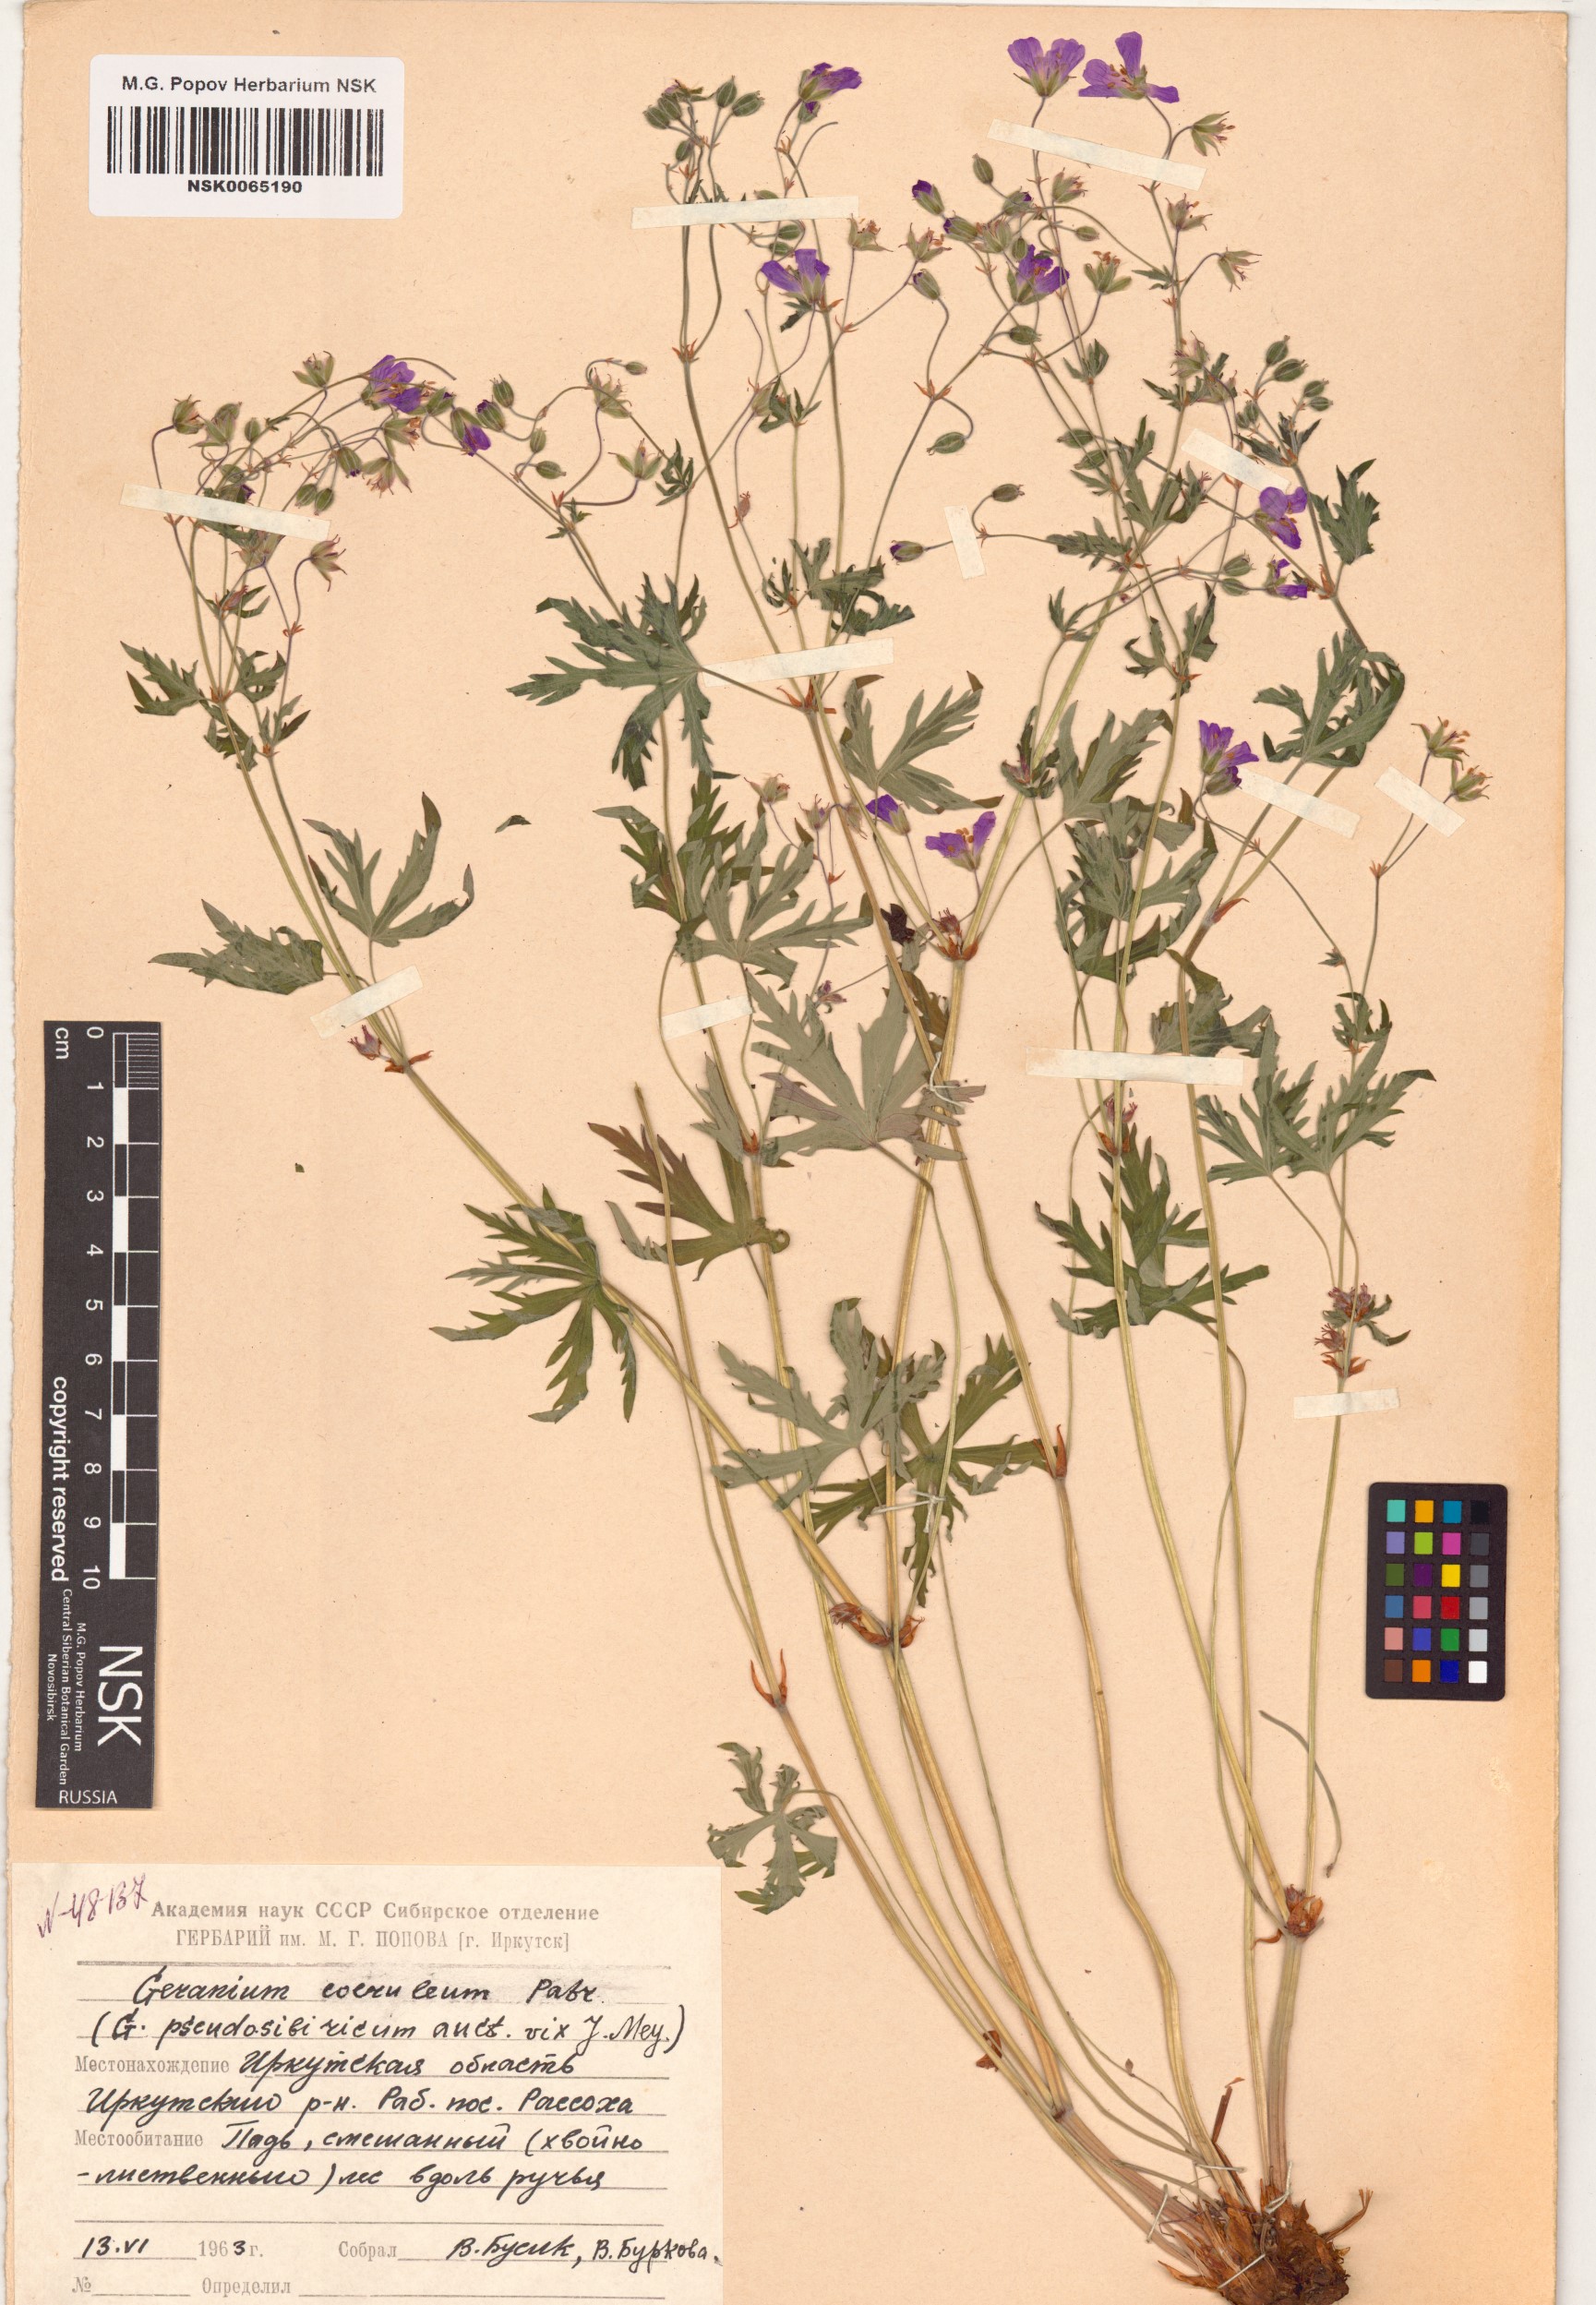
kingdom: Plantae
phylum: Tracheophyta
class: Magnoliopsida
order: Geraniales
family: Geraniaceae
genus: Geranium
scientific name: Geranium pseudosibiricum
